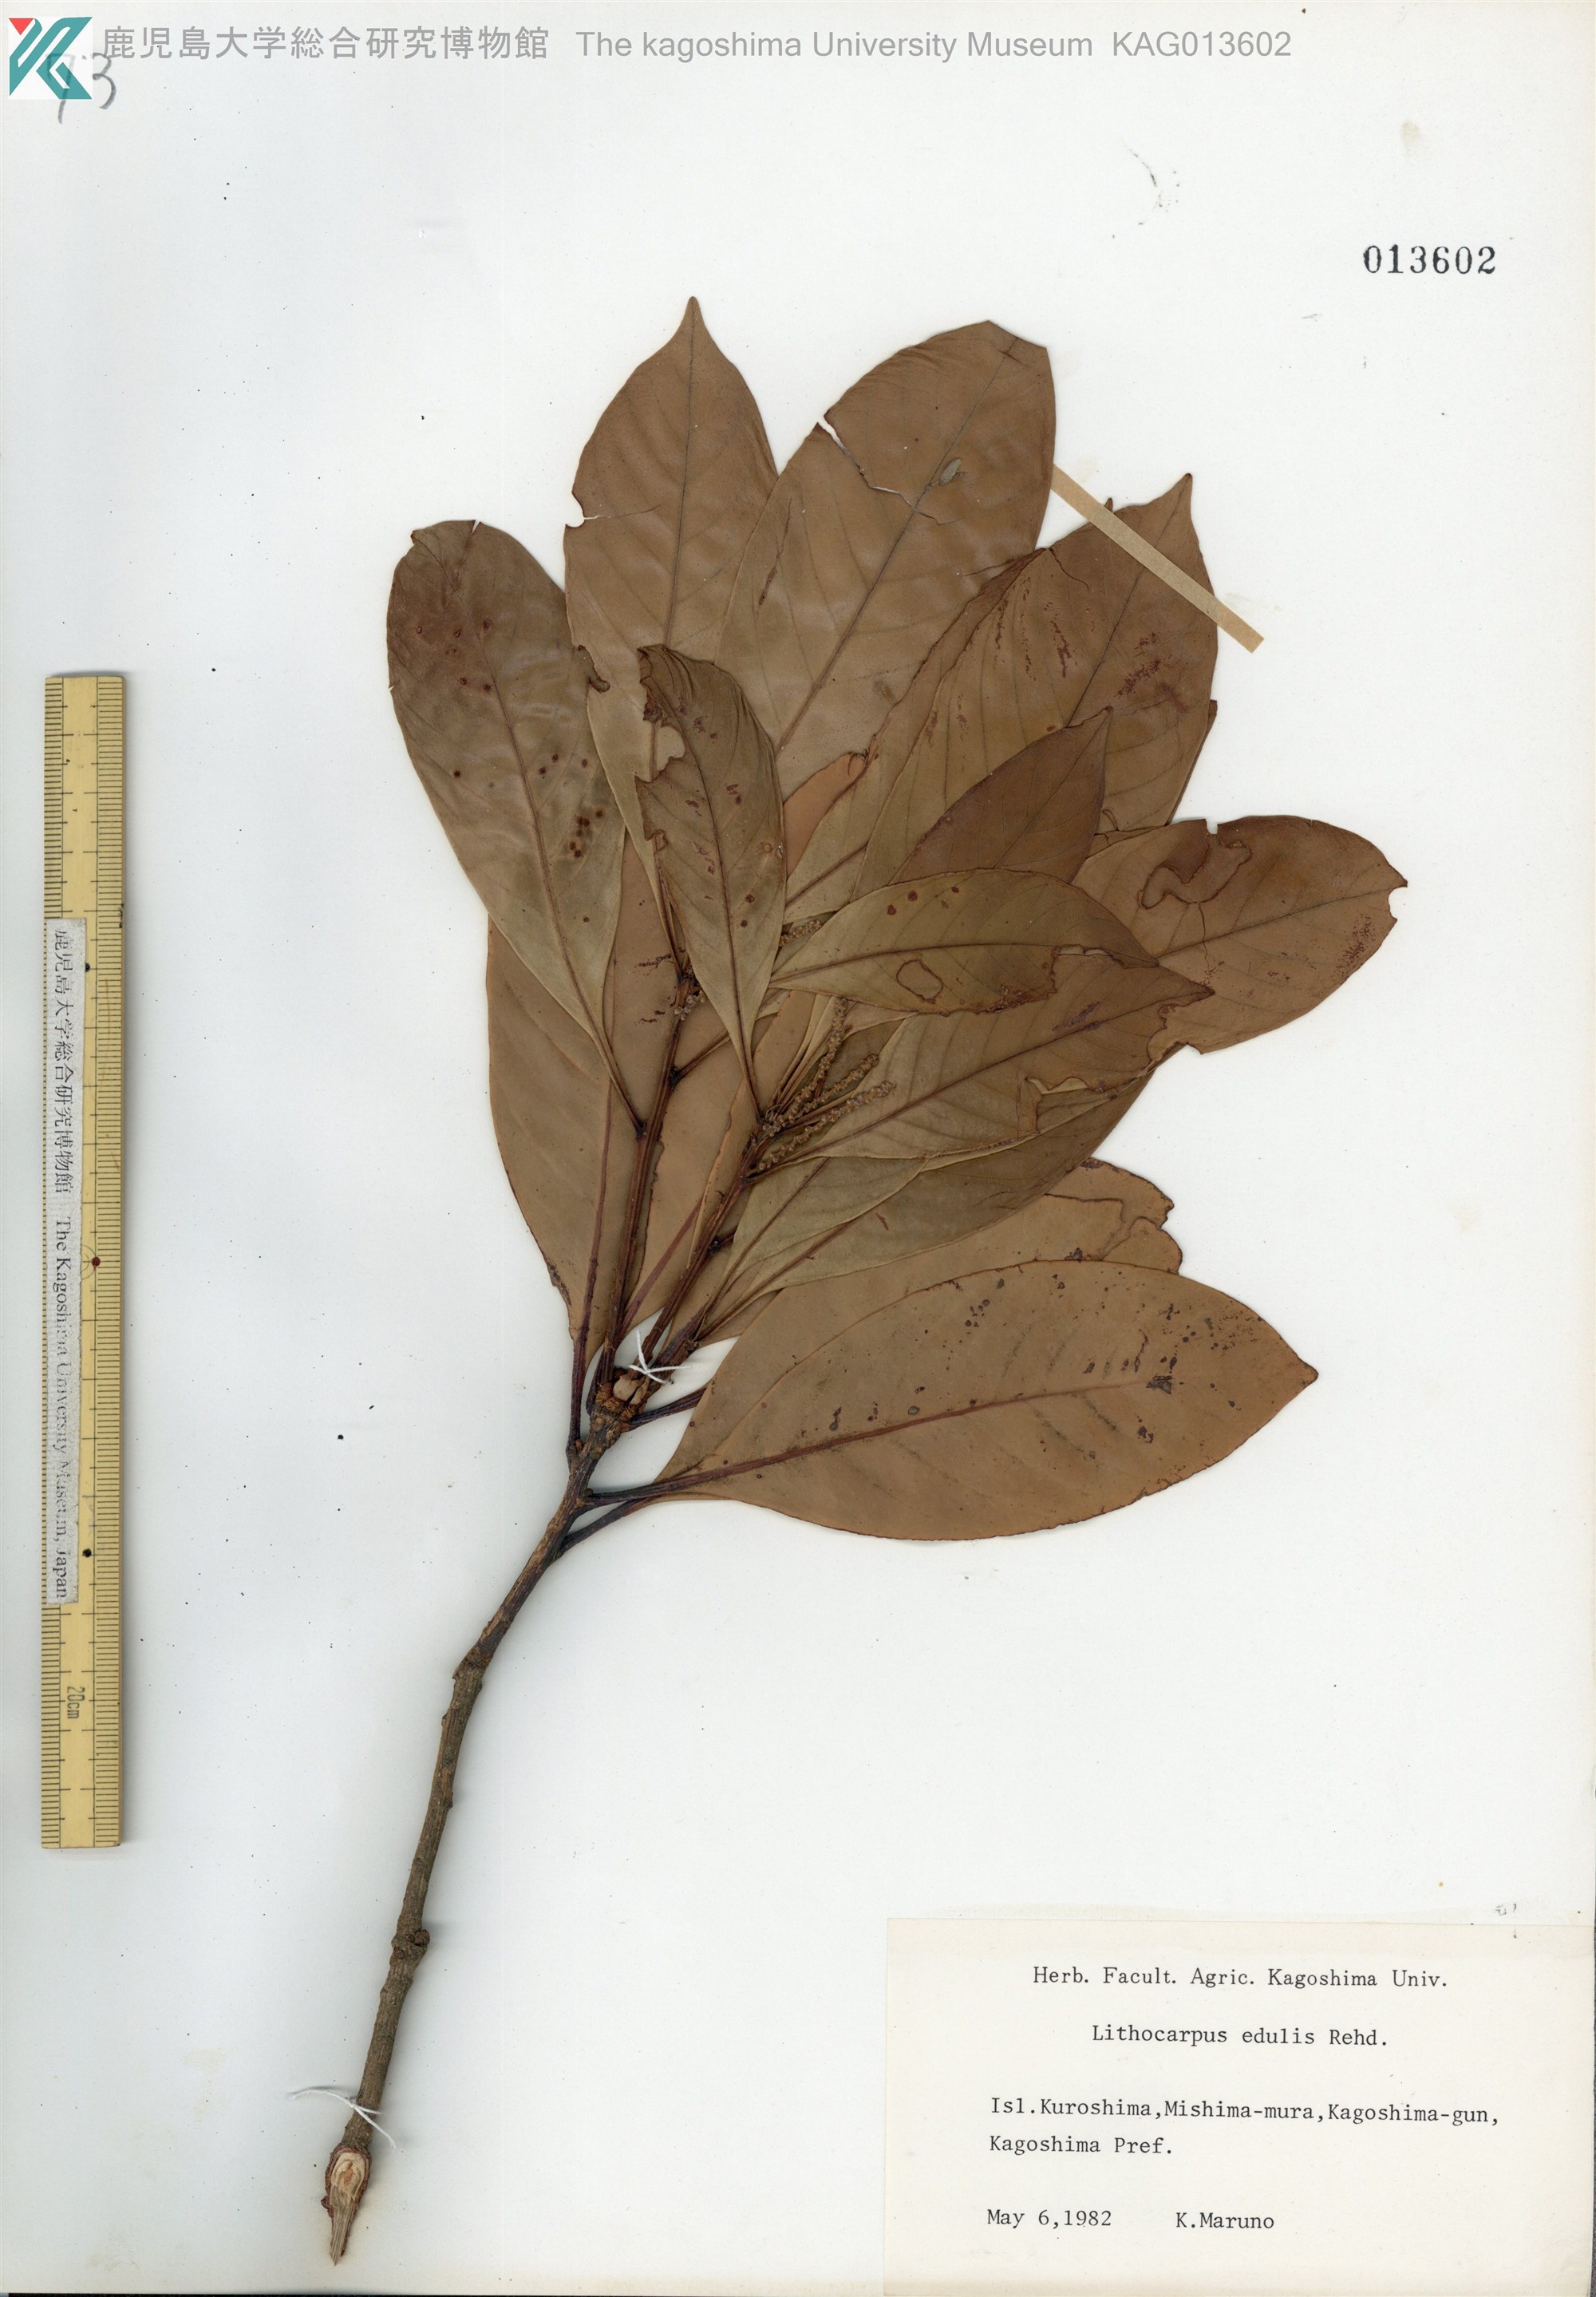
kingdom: Plantae
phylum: Tracheophyta
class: Magnoliopsida
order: Fagales
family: Fagaceae
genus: Lithocarpus
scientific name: Lithocarpus edulis
